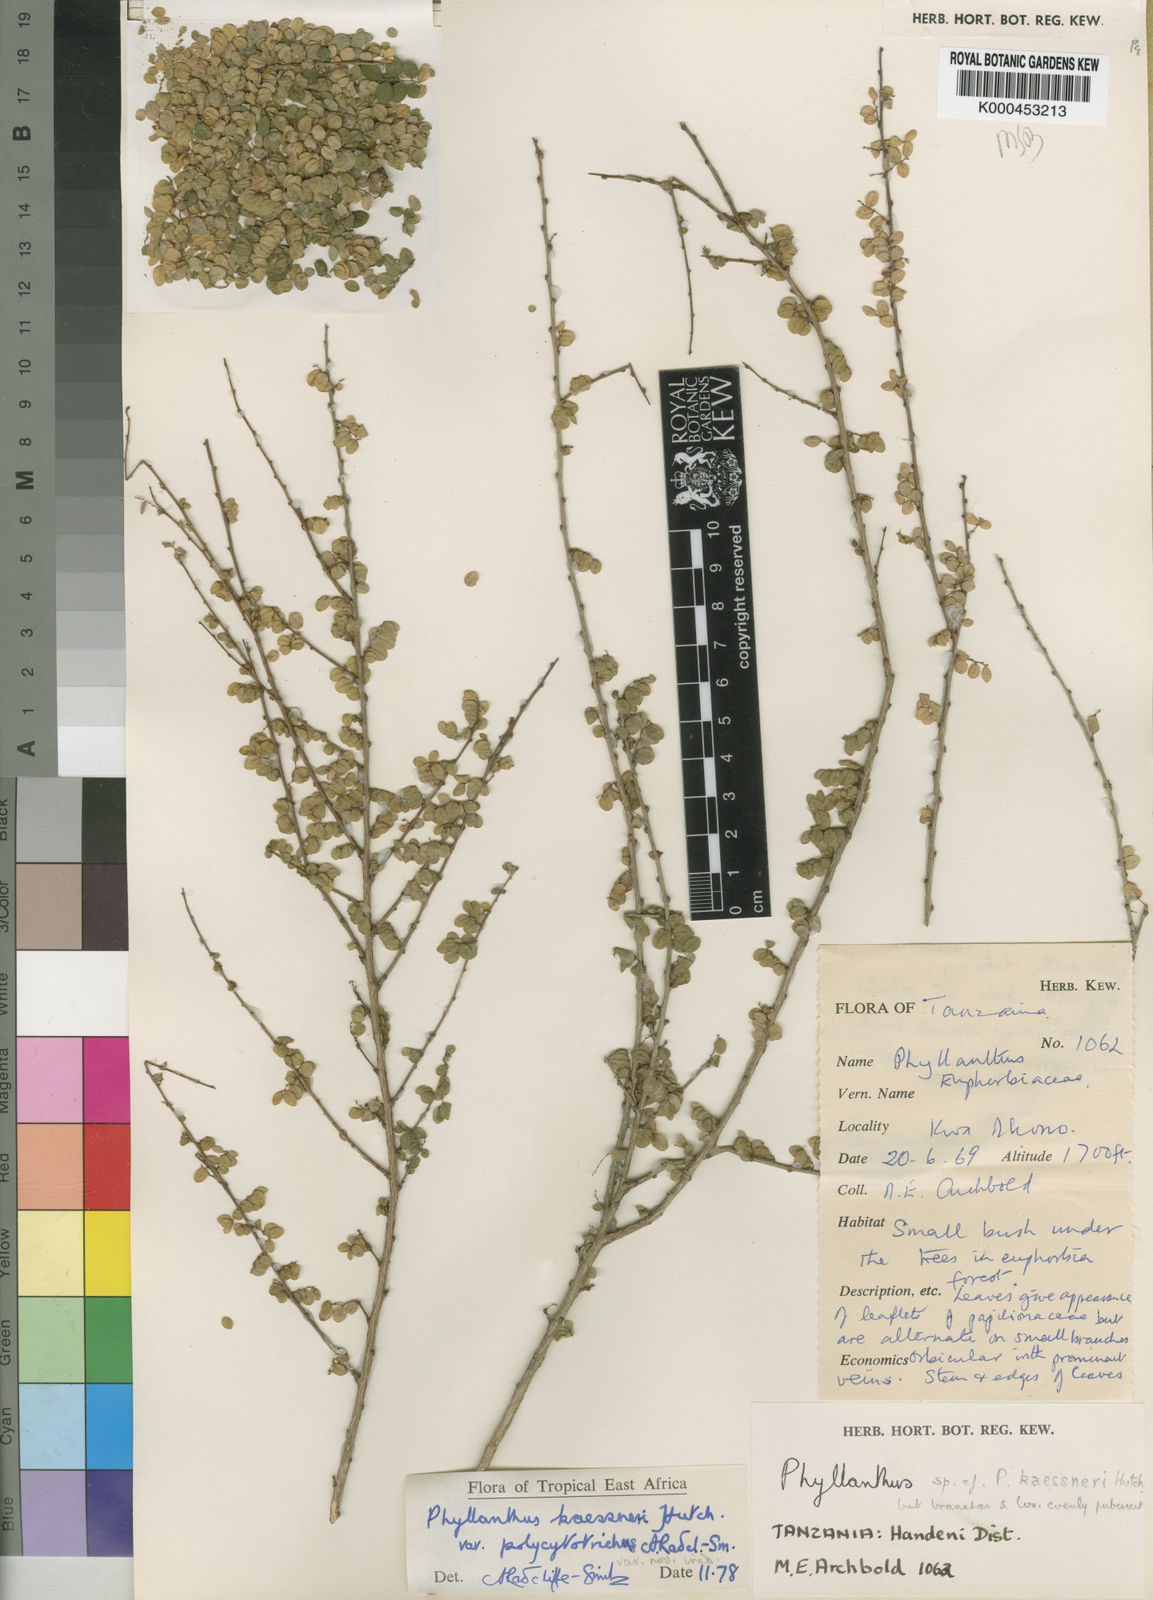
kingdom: Plantae
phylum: Tracheophyta
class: Magnoliopsida
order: Malpighiales
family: Phyllanthaceae
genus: Phyllanthus
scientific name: Phyllanthus kaessneri
